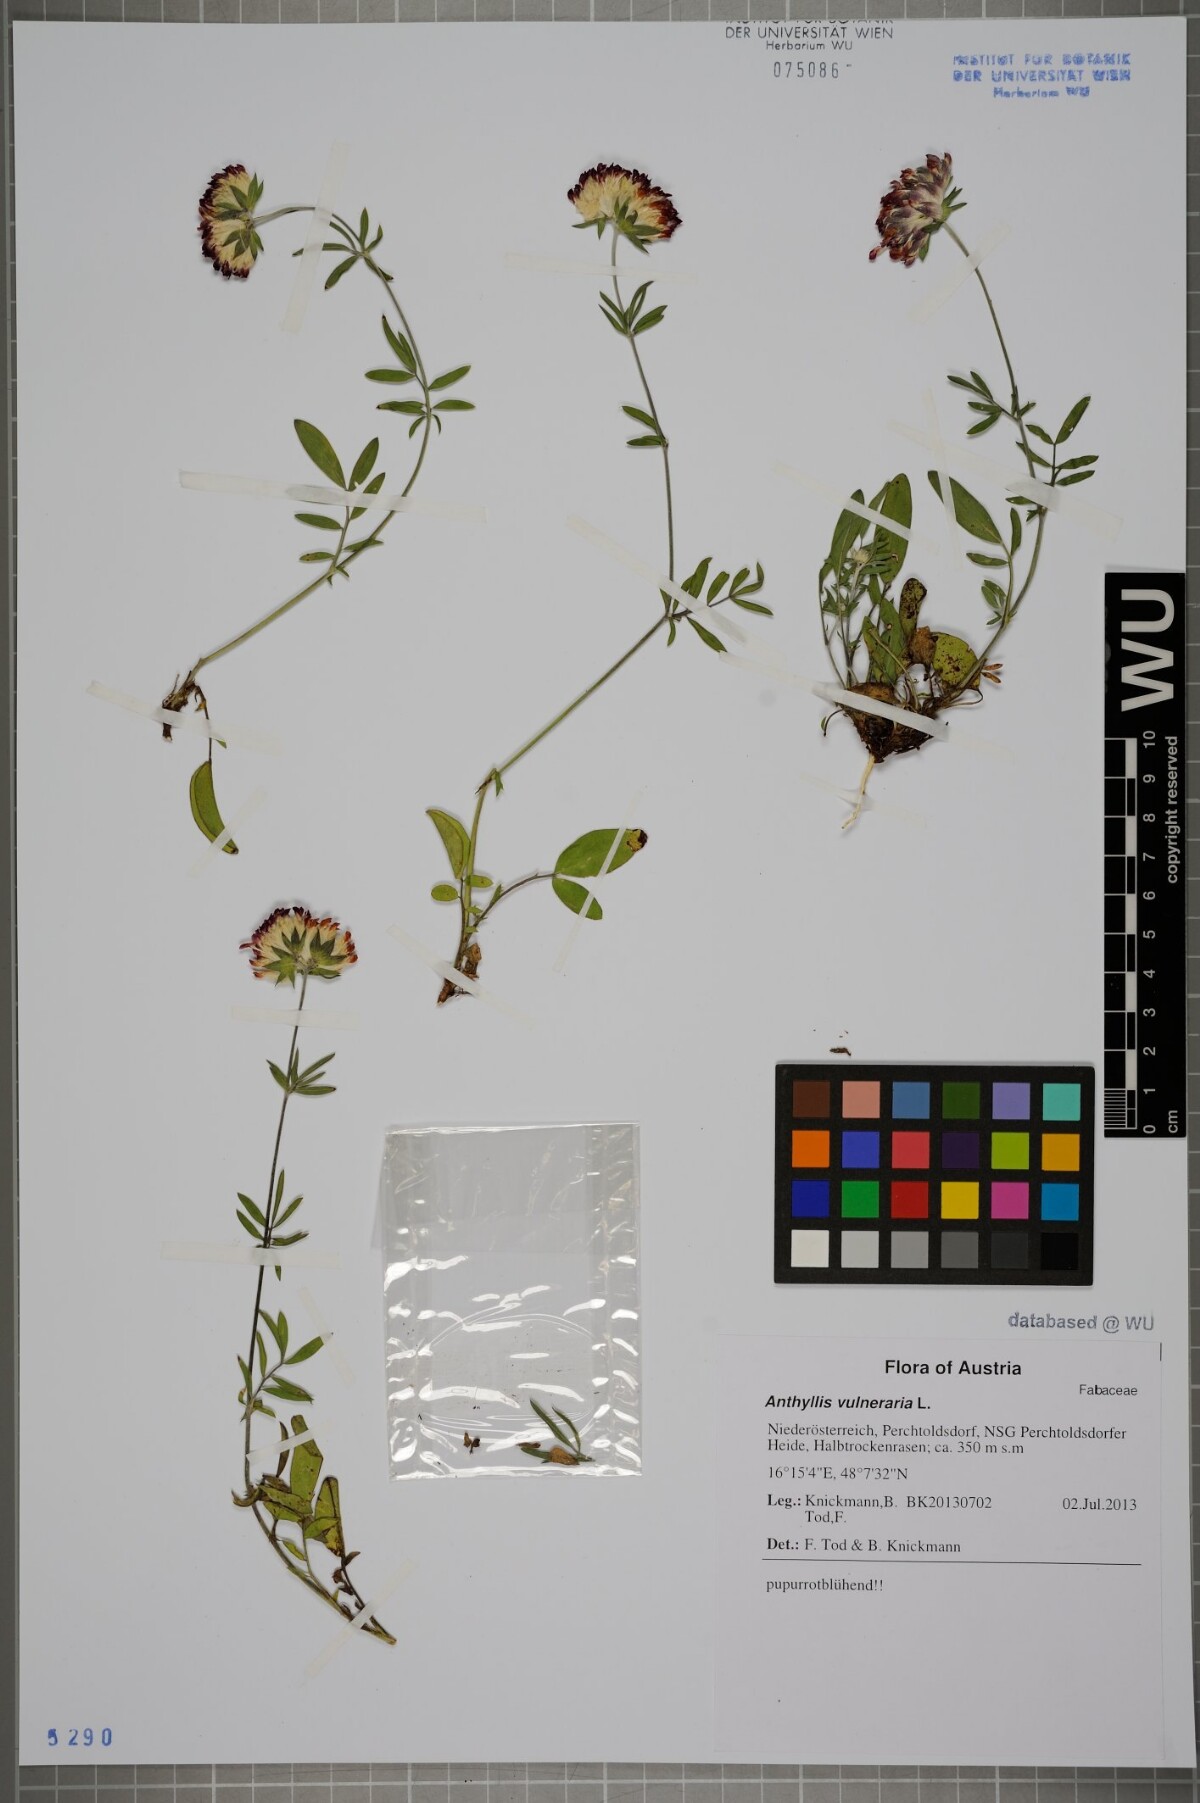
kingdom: Plantae
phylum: Tracheophyta
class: Magnoliopsida
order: Fabales
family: Fabaceae
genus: Anthyllis
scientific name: Anthyllis vulneraria
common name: Kidney vetch
